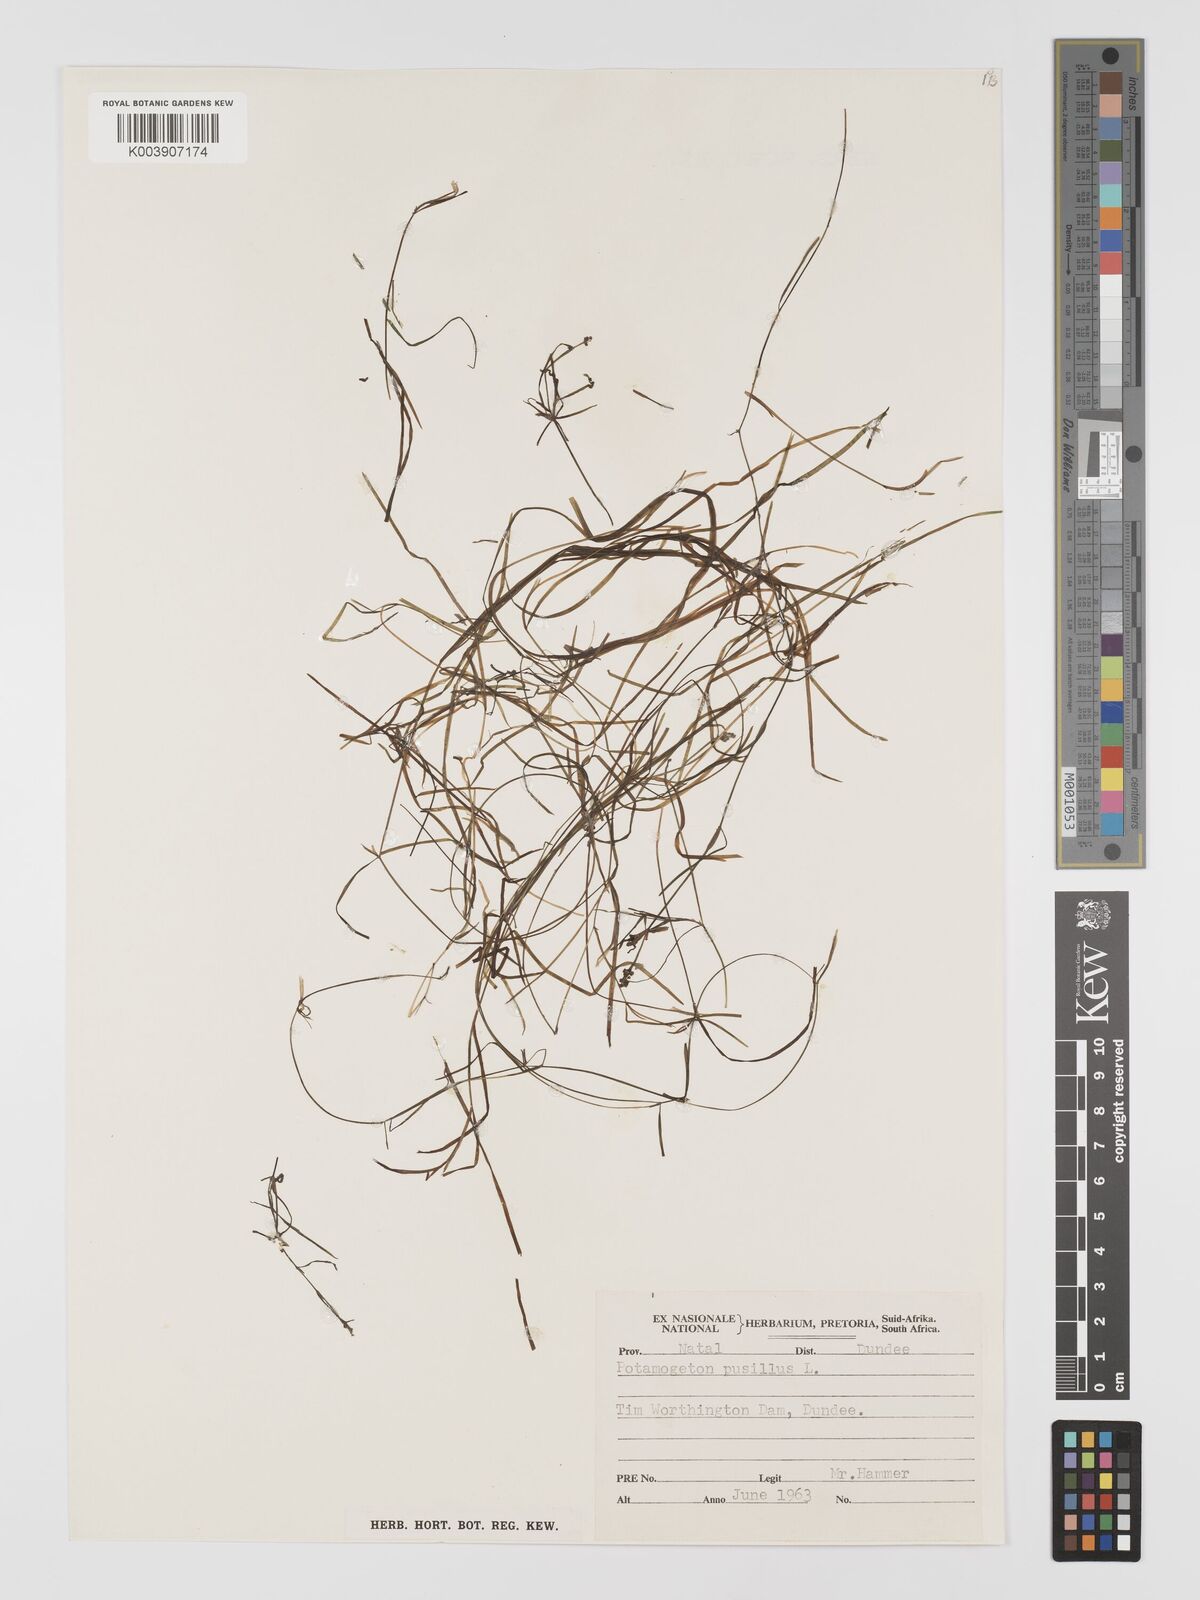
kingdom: Plantae
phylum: Tracheophyta
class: Liliopsida
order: Alismatales
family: Potamogetonaceae
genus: Potamogeton
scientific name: Potamogeton pusillus
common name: Lesser pondweed
